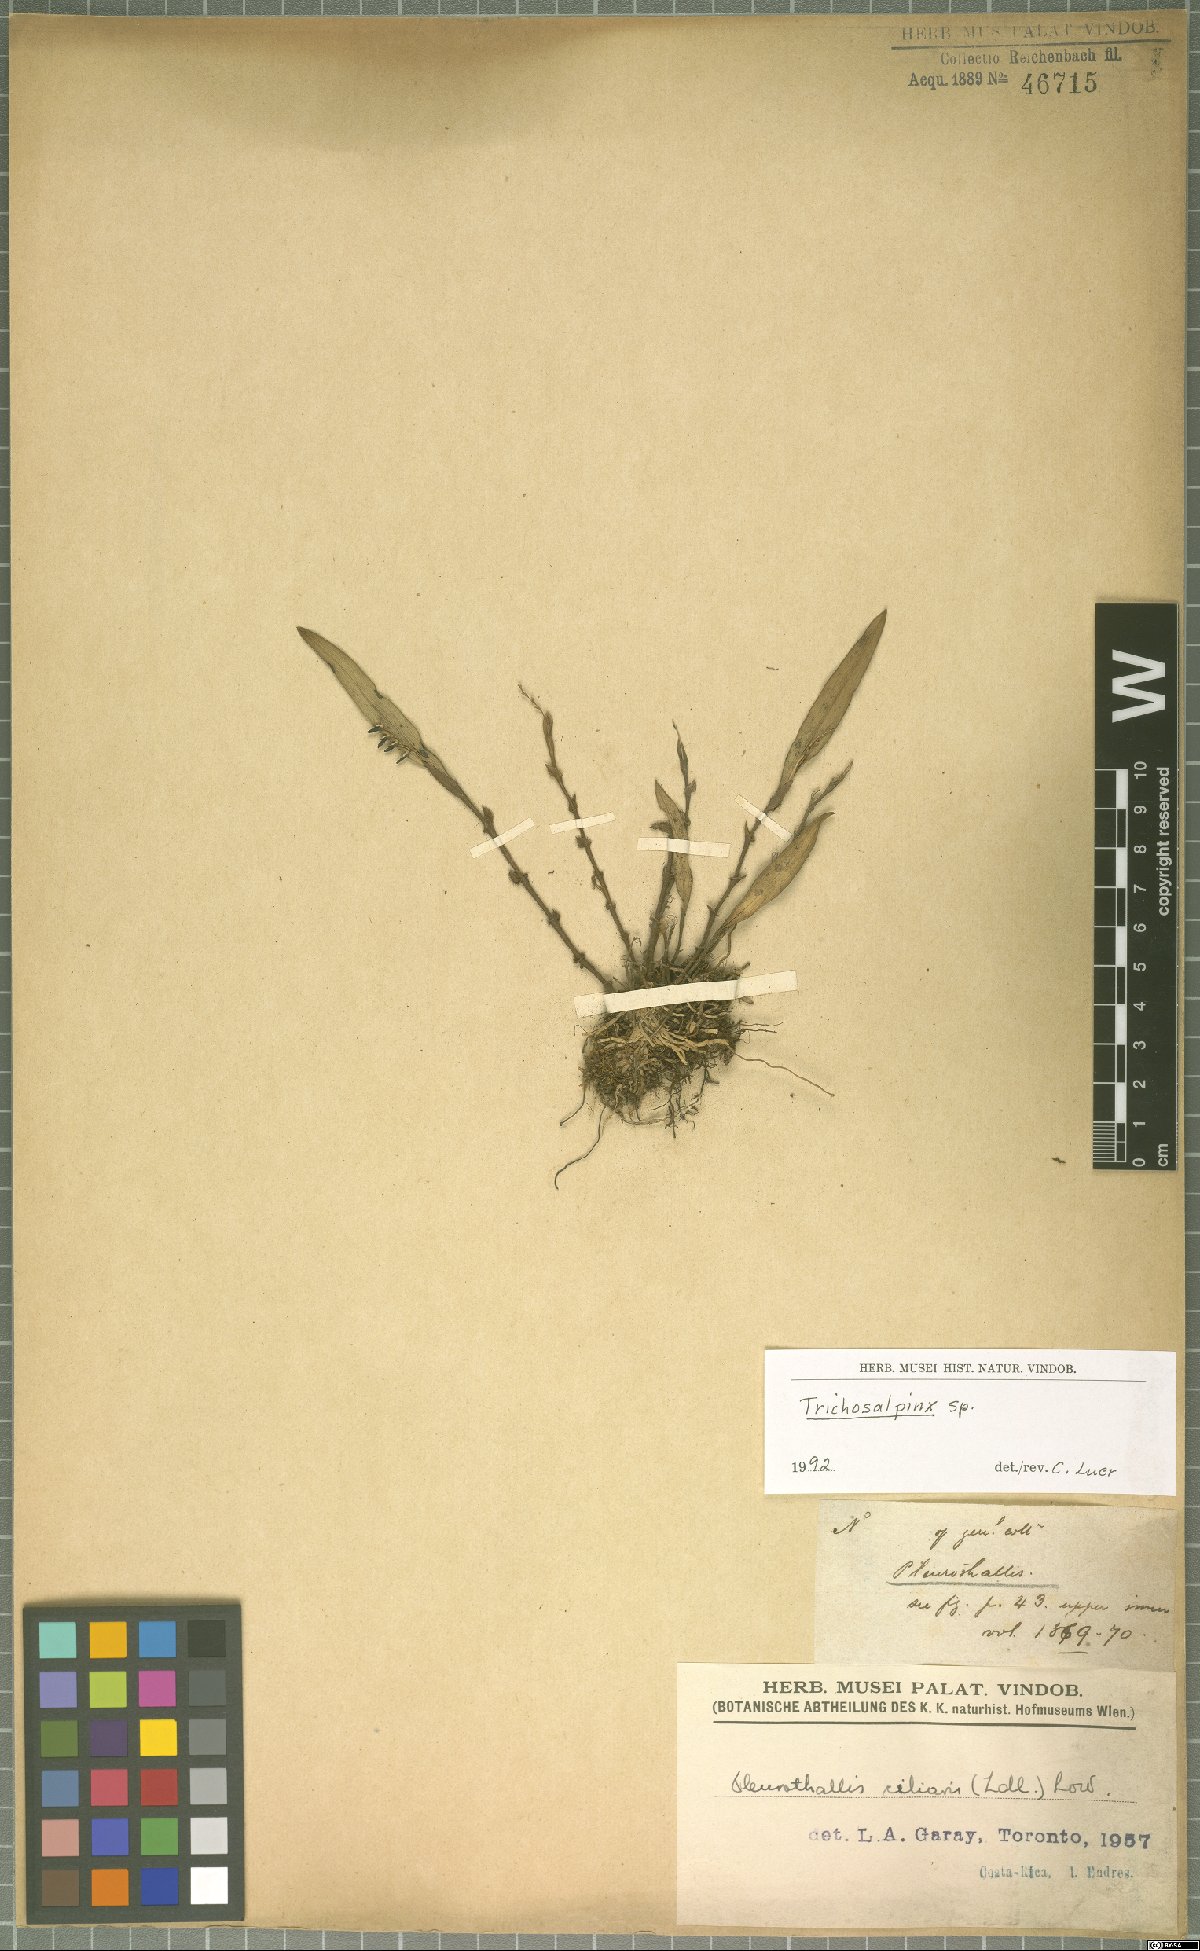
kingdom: Plantae
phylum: Tracheophyta
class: Liliopsida
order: Asparagales
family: Orchidaceae
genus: Trichosalpinx
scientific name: Trichosalpinx
